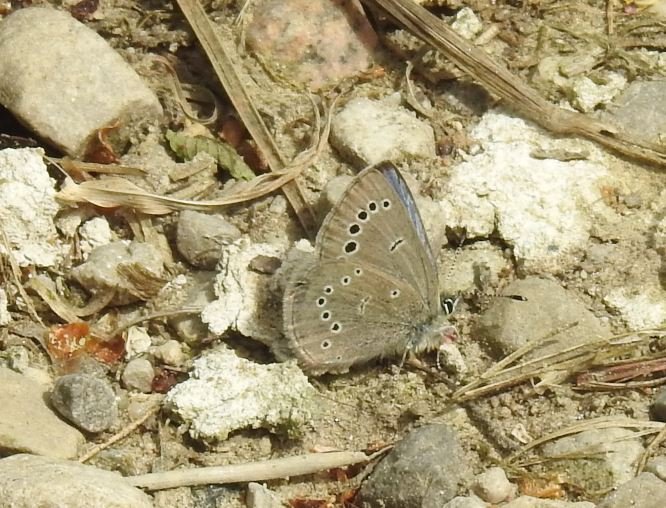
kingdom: Animalia
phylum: Arthropoda
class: Insecta
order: Lepidoptera
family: Lycaenidae
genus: Glaucopsyche
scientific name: Glaucopsyche lygdamus
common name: Silvery Blue
